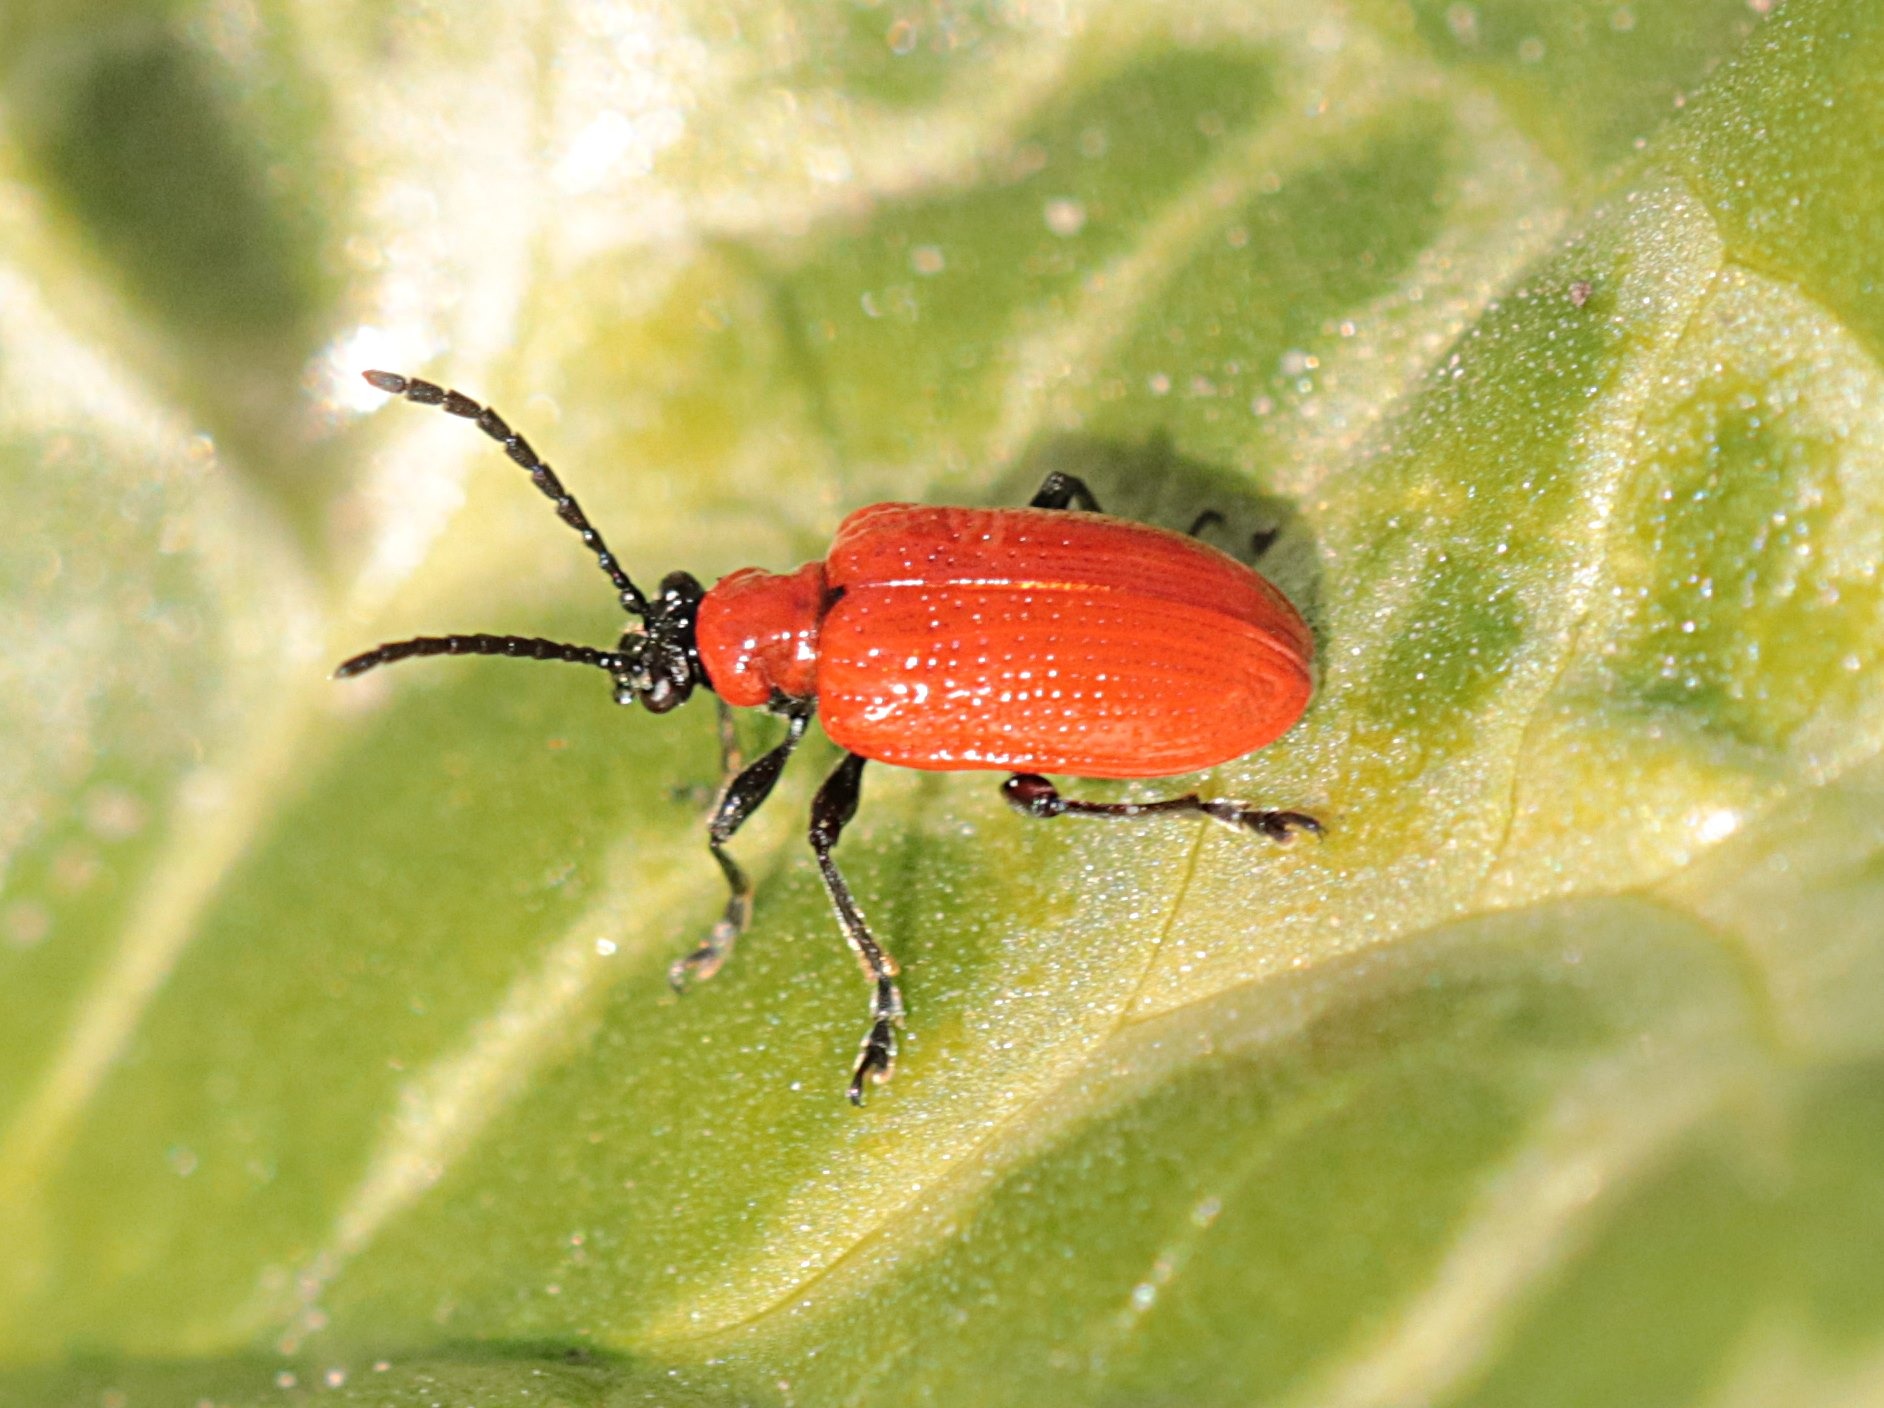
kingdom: Animalia
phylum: Arthropoda
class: Insecta
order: Coleoptera
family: Chrysomelidae
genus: Lilioceris
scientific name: Lilioceris lilii
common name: Liljebille
